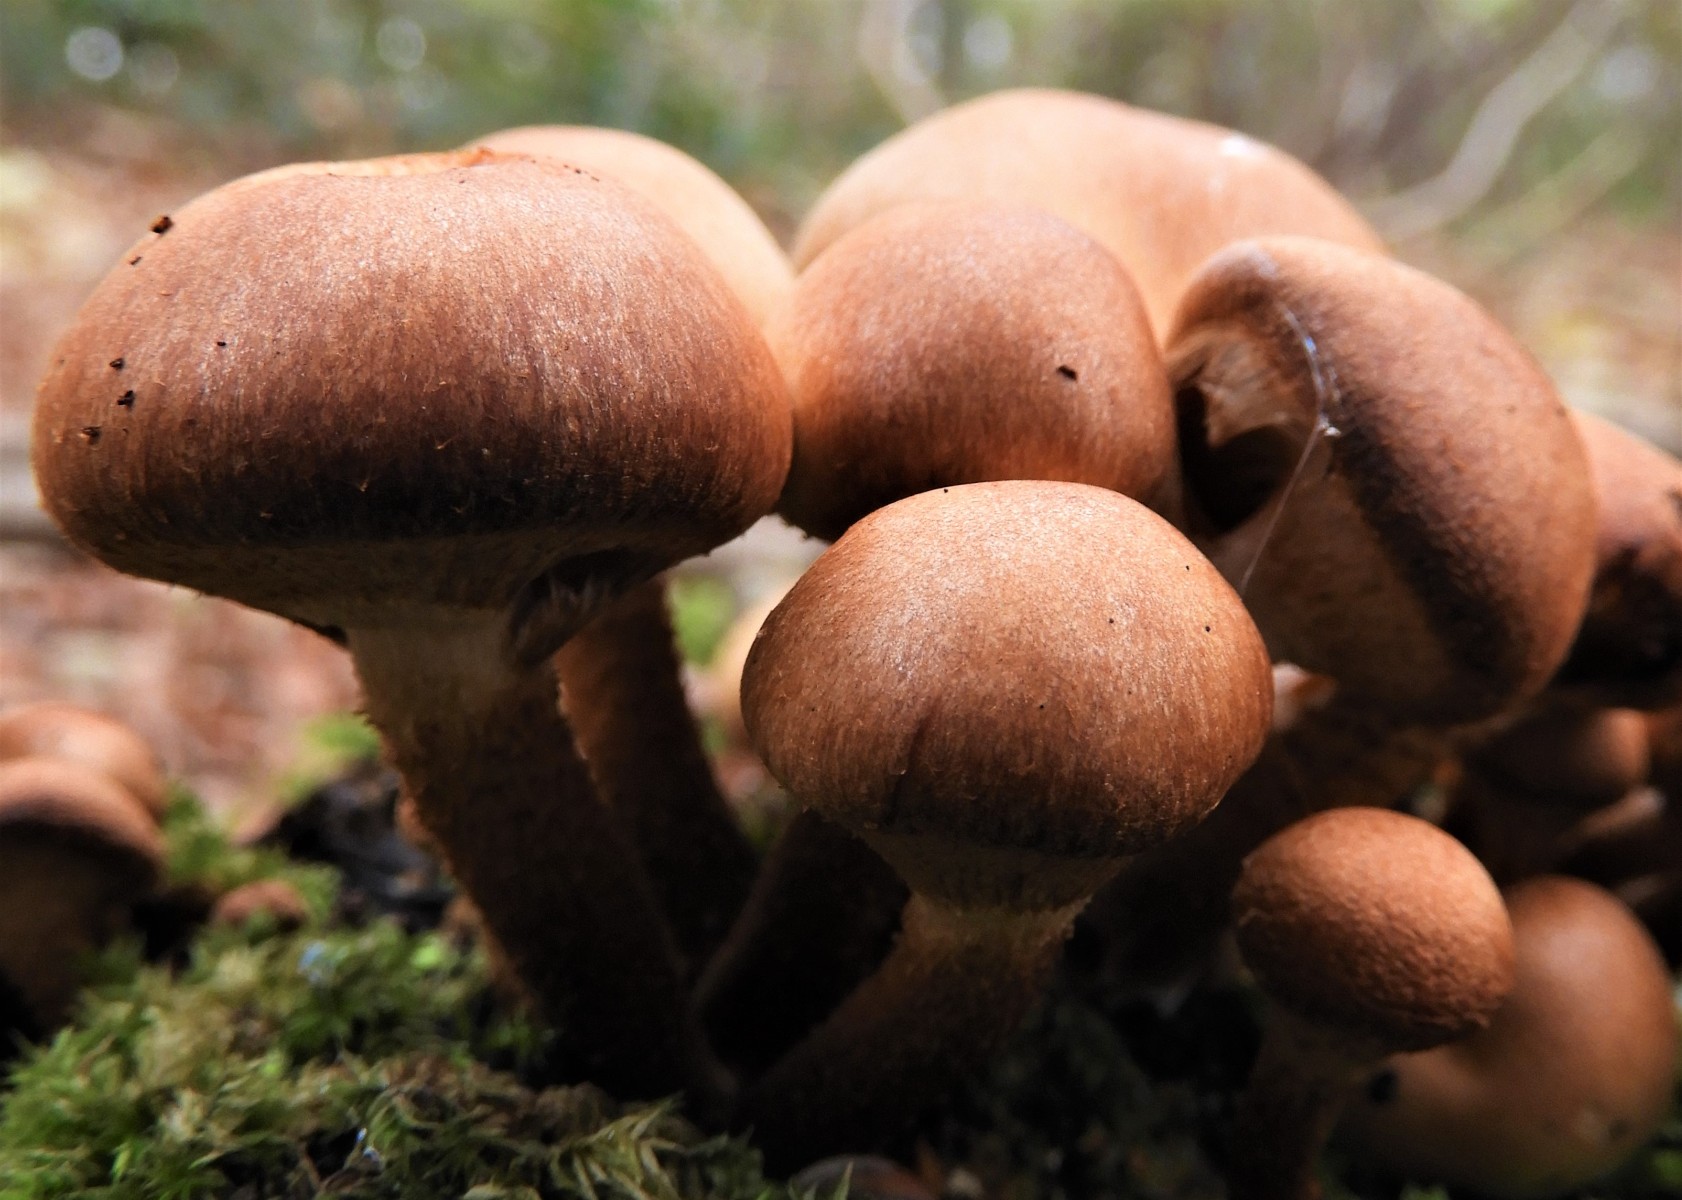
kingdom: Fungi
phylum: Basidiomycota
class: Agaricomycetes
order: Agaricales
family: Strophariaceae
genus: Kuehneromyces
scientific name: Kuehneromyces mutabilis
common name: foranderlig skælhat
